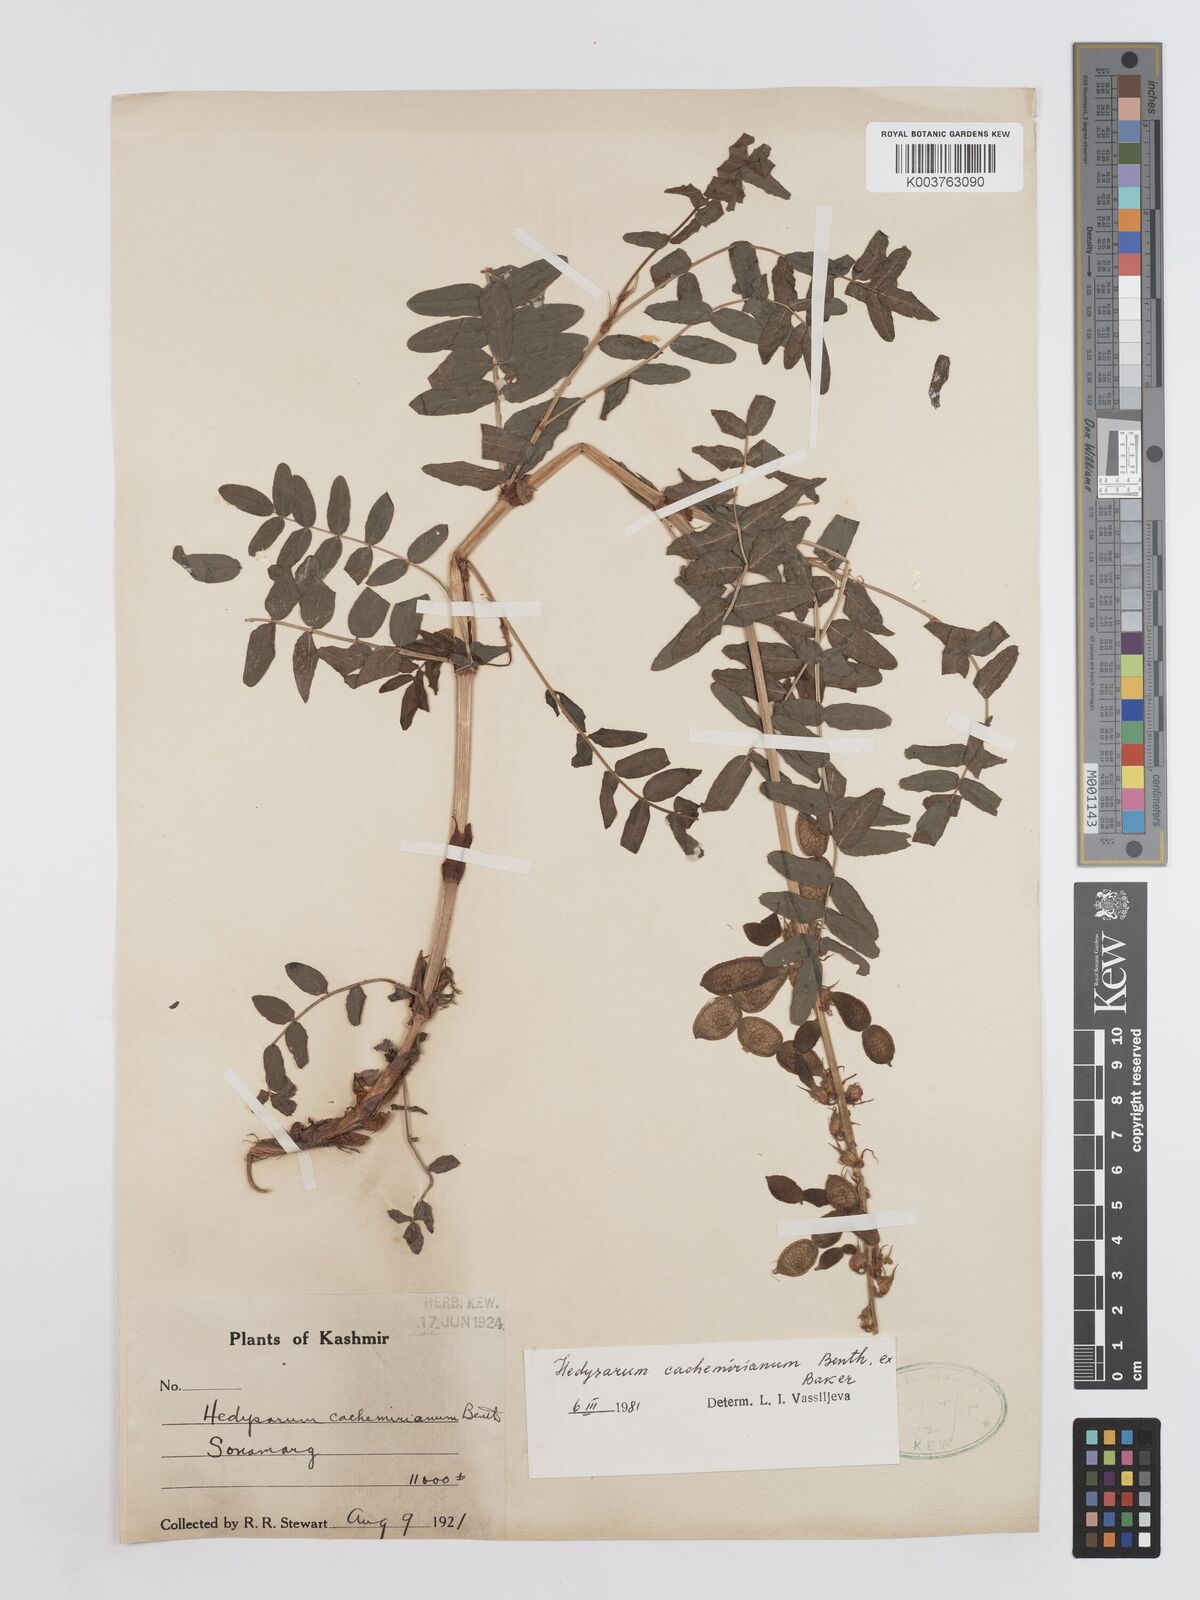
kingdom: Plantae
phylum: Tracheophyta
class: Magnoliopsida
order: Fabales
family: Fabaceae
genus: Hedysarum
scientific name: Hedysarum cachemirianum
